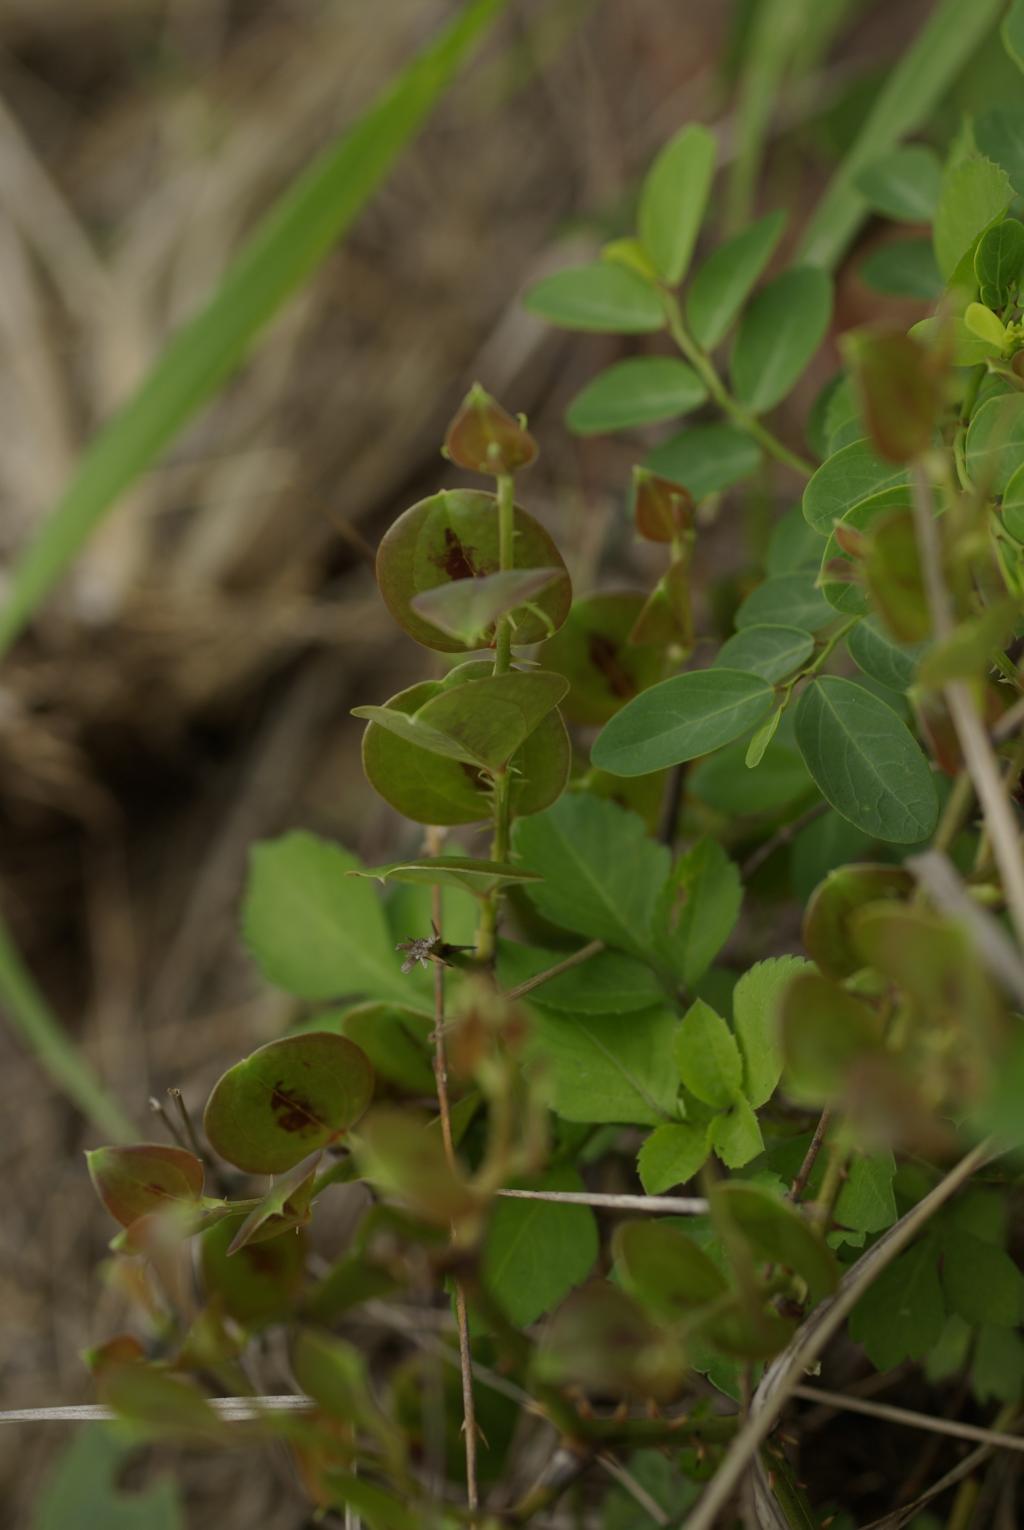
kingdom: Plantae
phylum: Tracheophyta
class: Liliopsida
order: Liliales
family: Smilacaceae
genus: Smilax
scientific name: Smilax china
